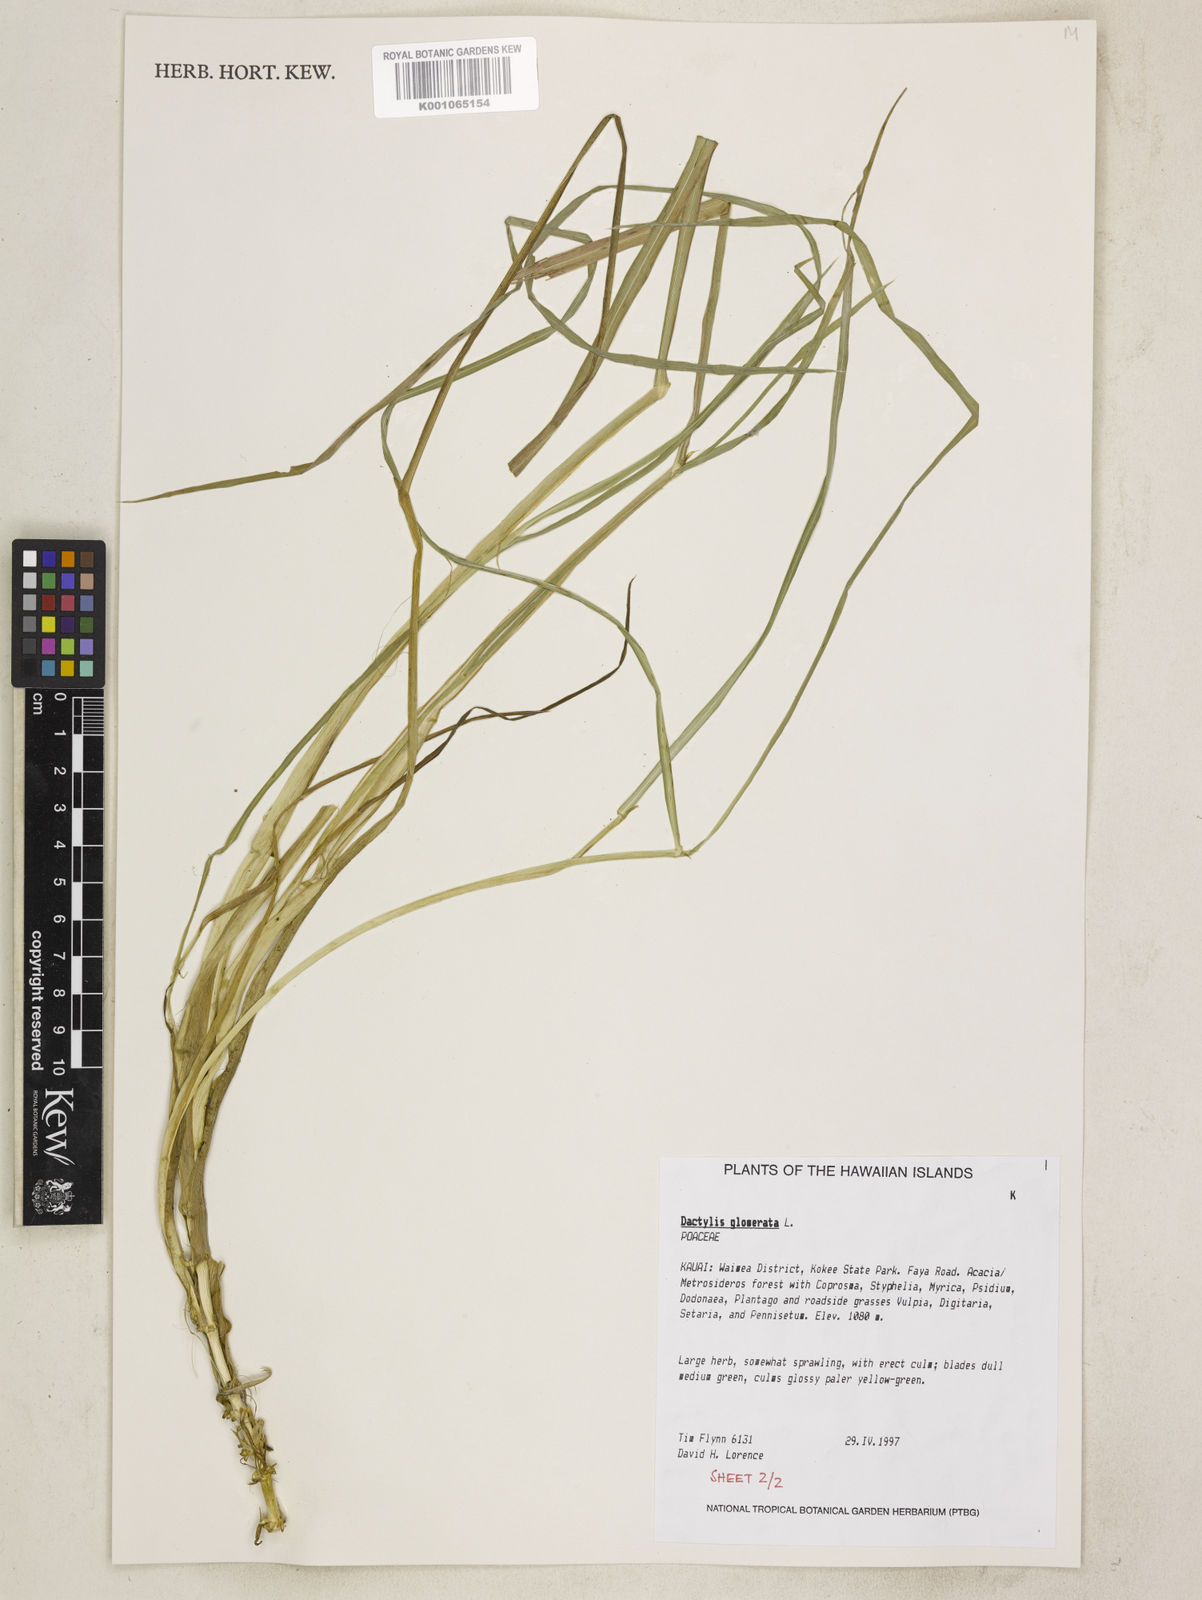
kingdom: Plantae
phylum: Tracheophyta
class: Liliopsida
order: Poales
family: Poaceae
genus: Dactylis
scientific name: Dactylis glomerata
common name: Orchardgrass
